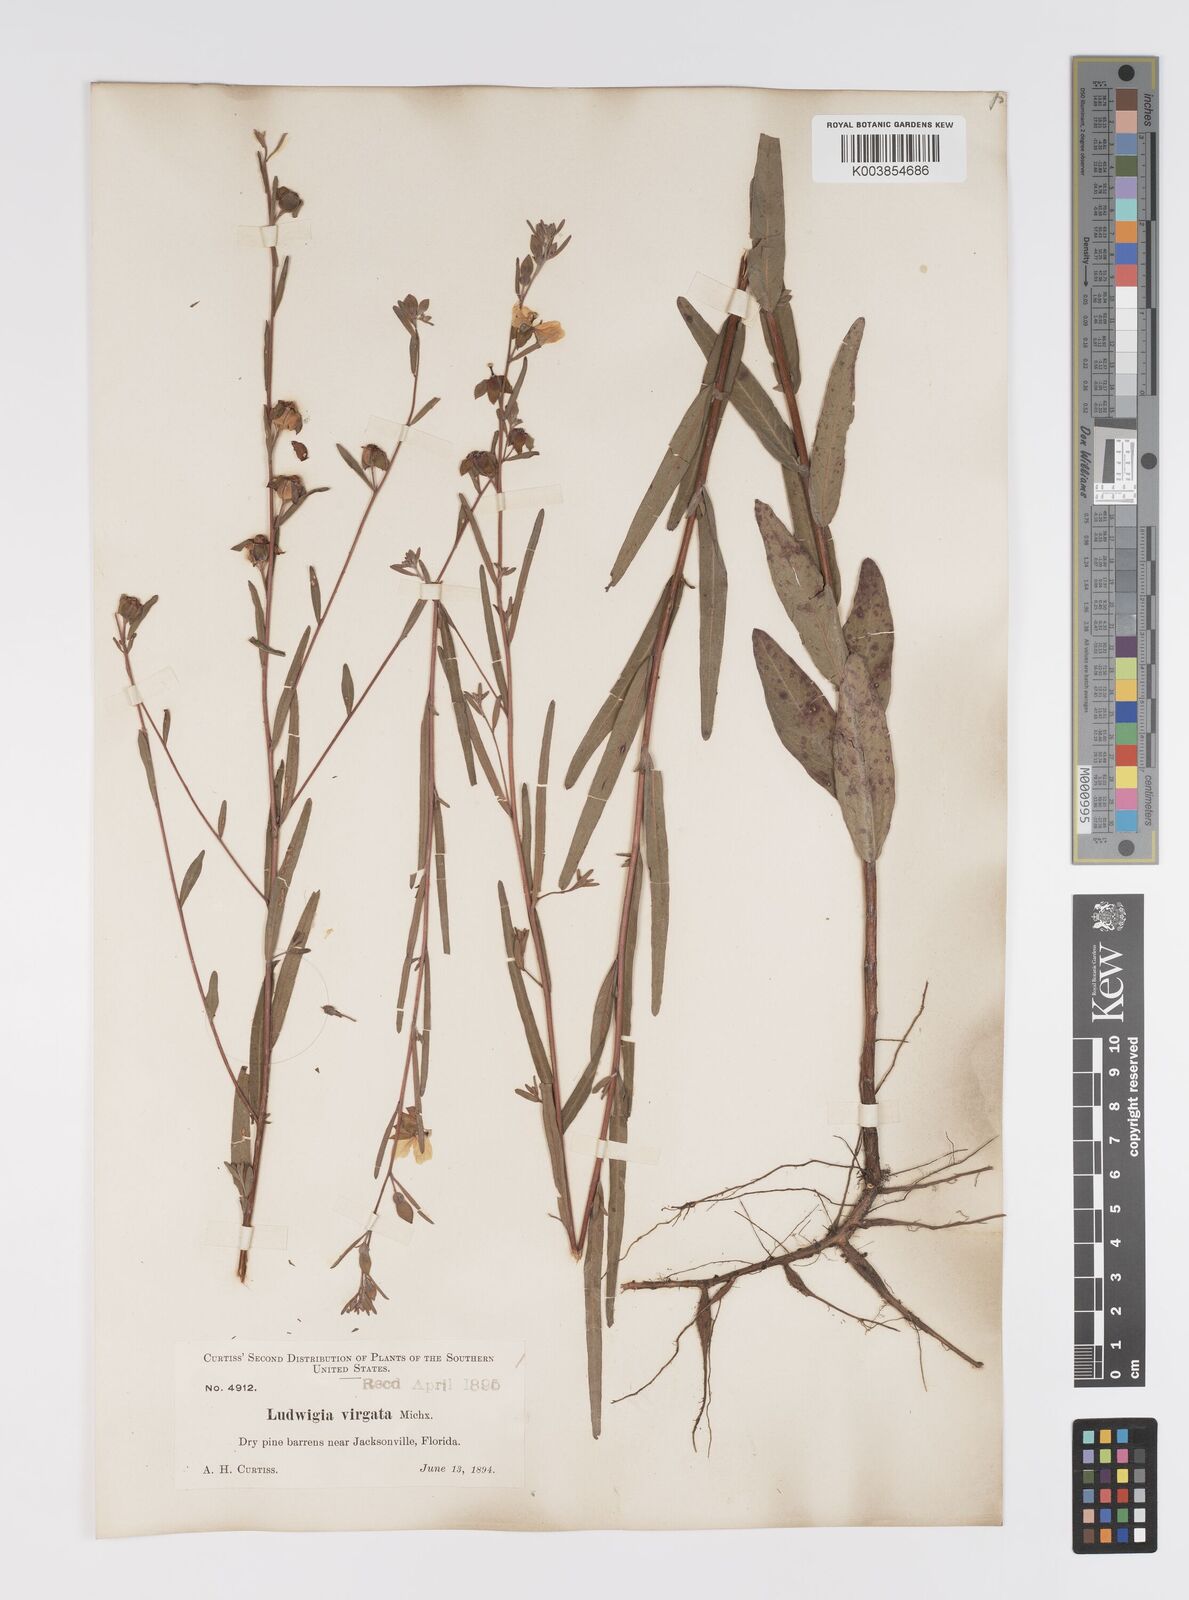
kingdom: Plantae
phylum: Tracheophyta
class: Magnoliopsida
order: Myrtales
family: Onagraceae
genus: Ludwigia
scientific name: Ludwigia virgata
